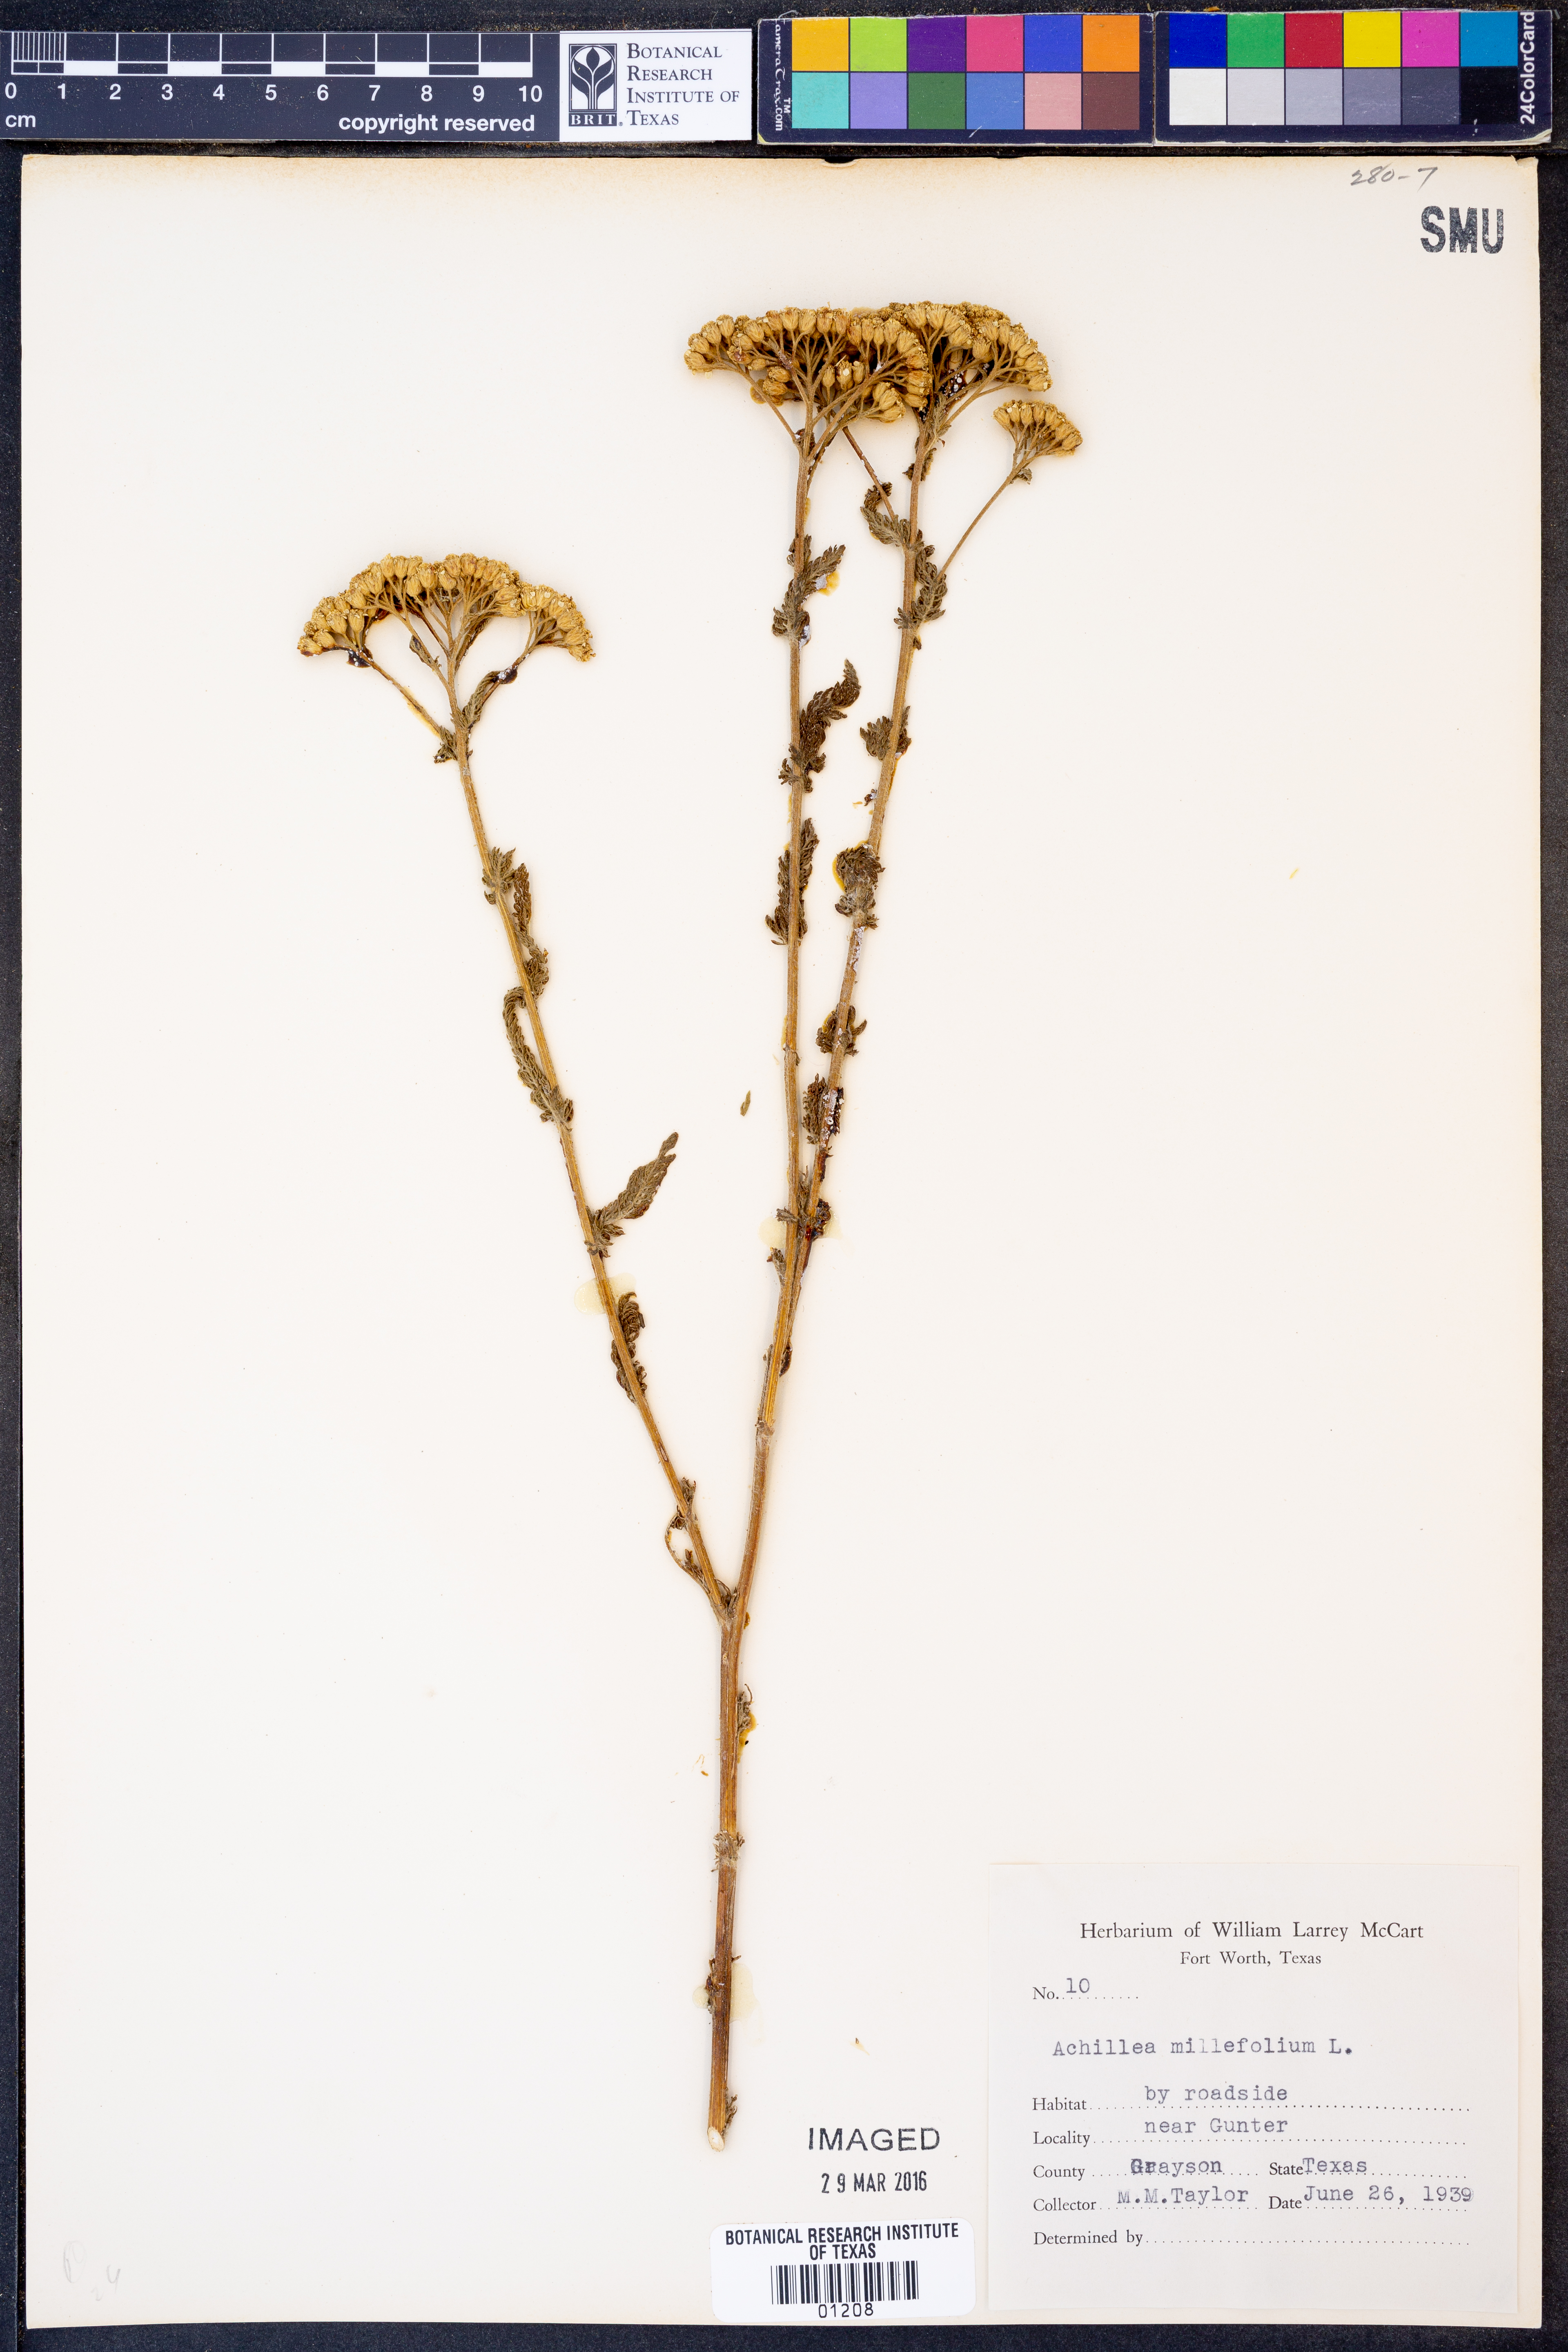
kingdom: Plantae
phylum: Tracheophyta
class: Magnoliopsida
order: Asterales
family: Asteraceae
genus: Achillea
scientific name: Achillea millefolium
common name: Yarrow
